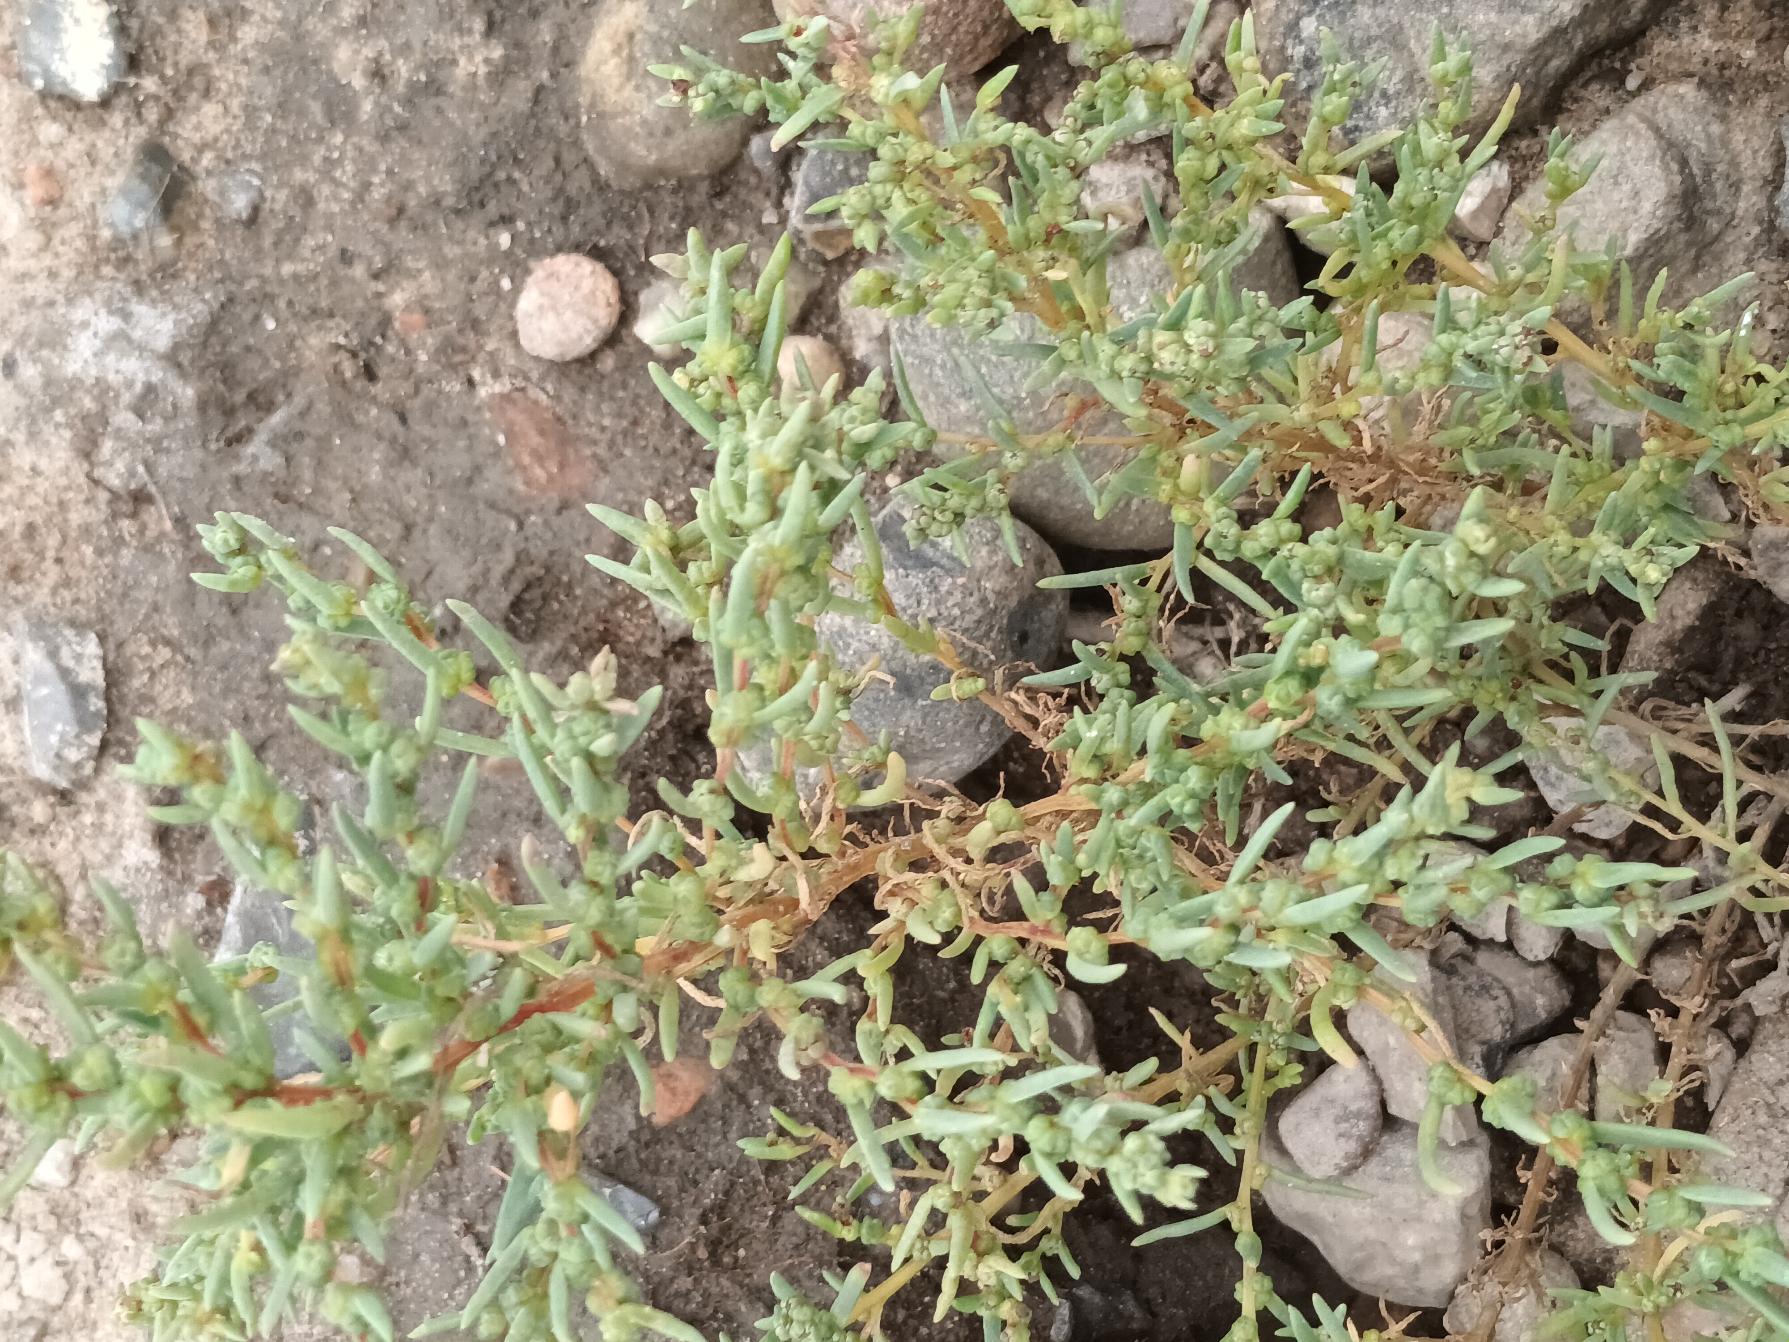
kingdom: Plantae
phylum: Tracheophyta
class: Magnoliopsida
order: Caryophyllales
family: Amaranthaceae
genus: Suaeda
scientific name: Suaeda maritima
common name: Strandgåsefod
